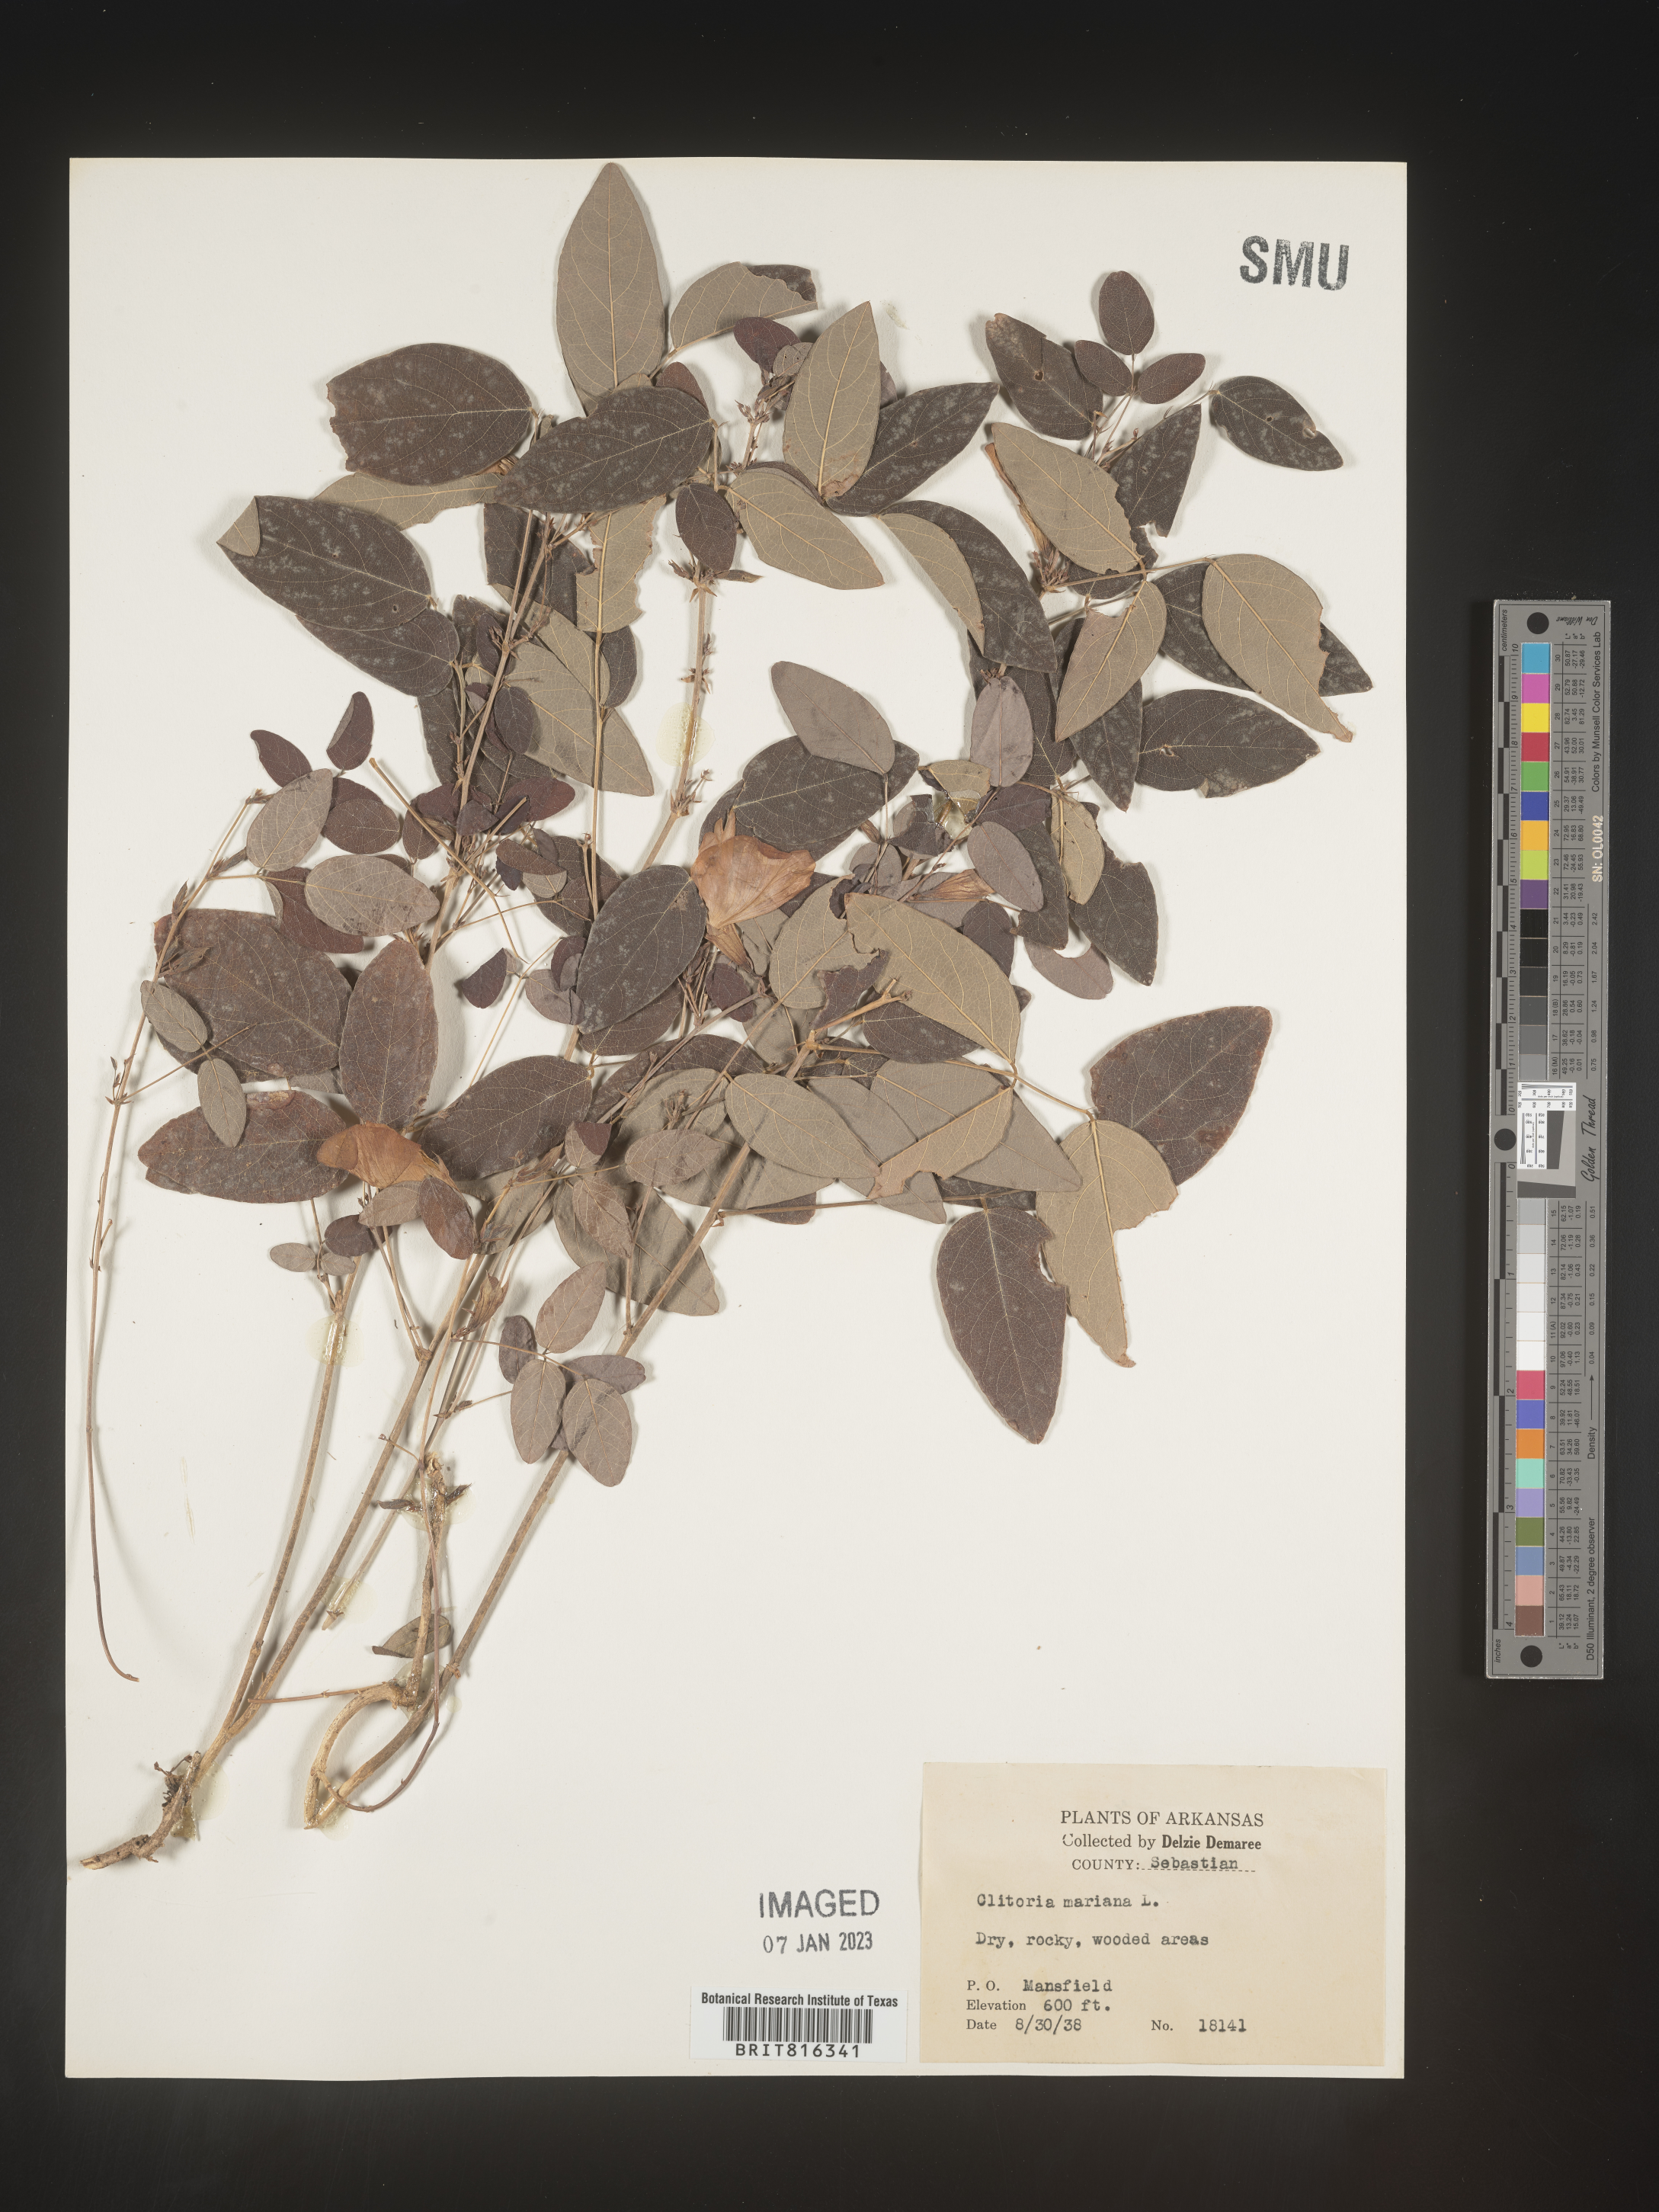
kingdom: Plantae
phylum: Tracheophyta
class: Magnoliopsida
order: Fabales
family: Fabaceae
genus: Clitoria
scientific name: Clitoria mariana
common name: Butterfly-pea
